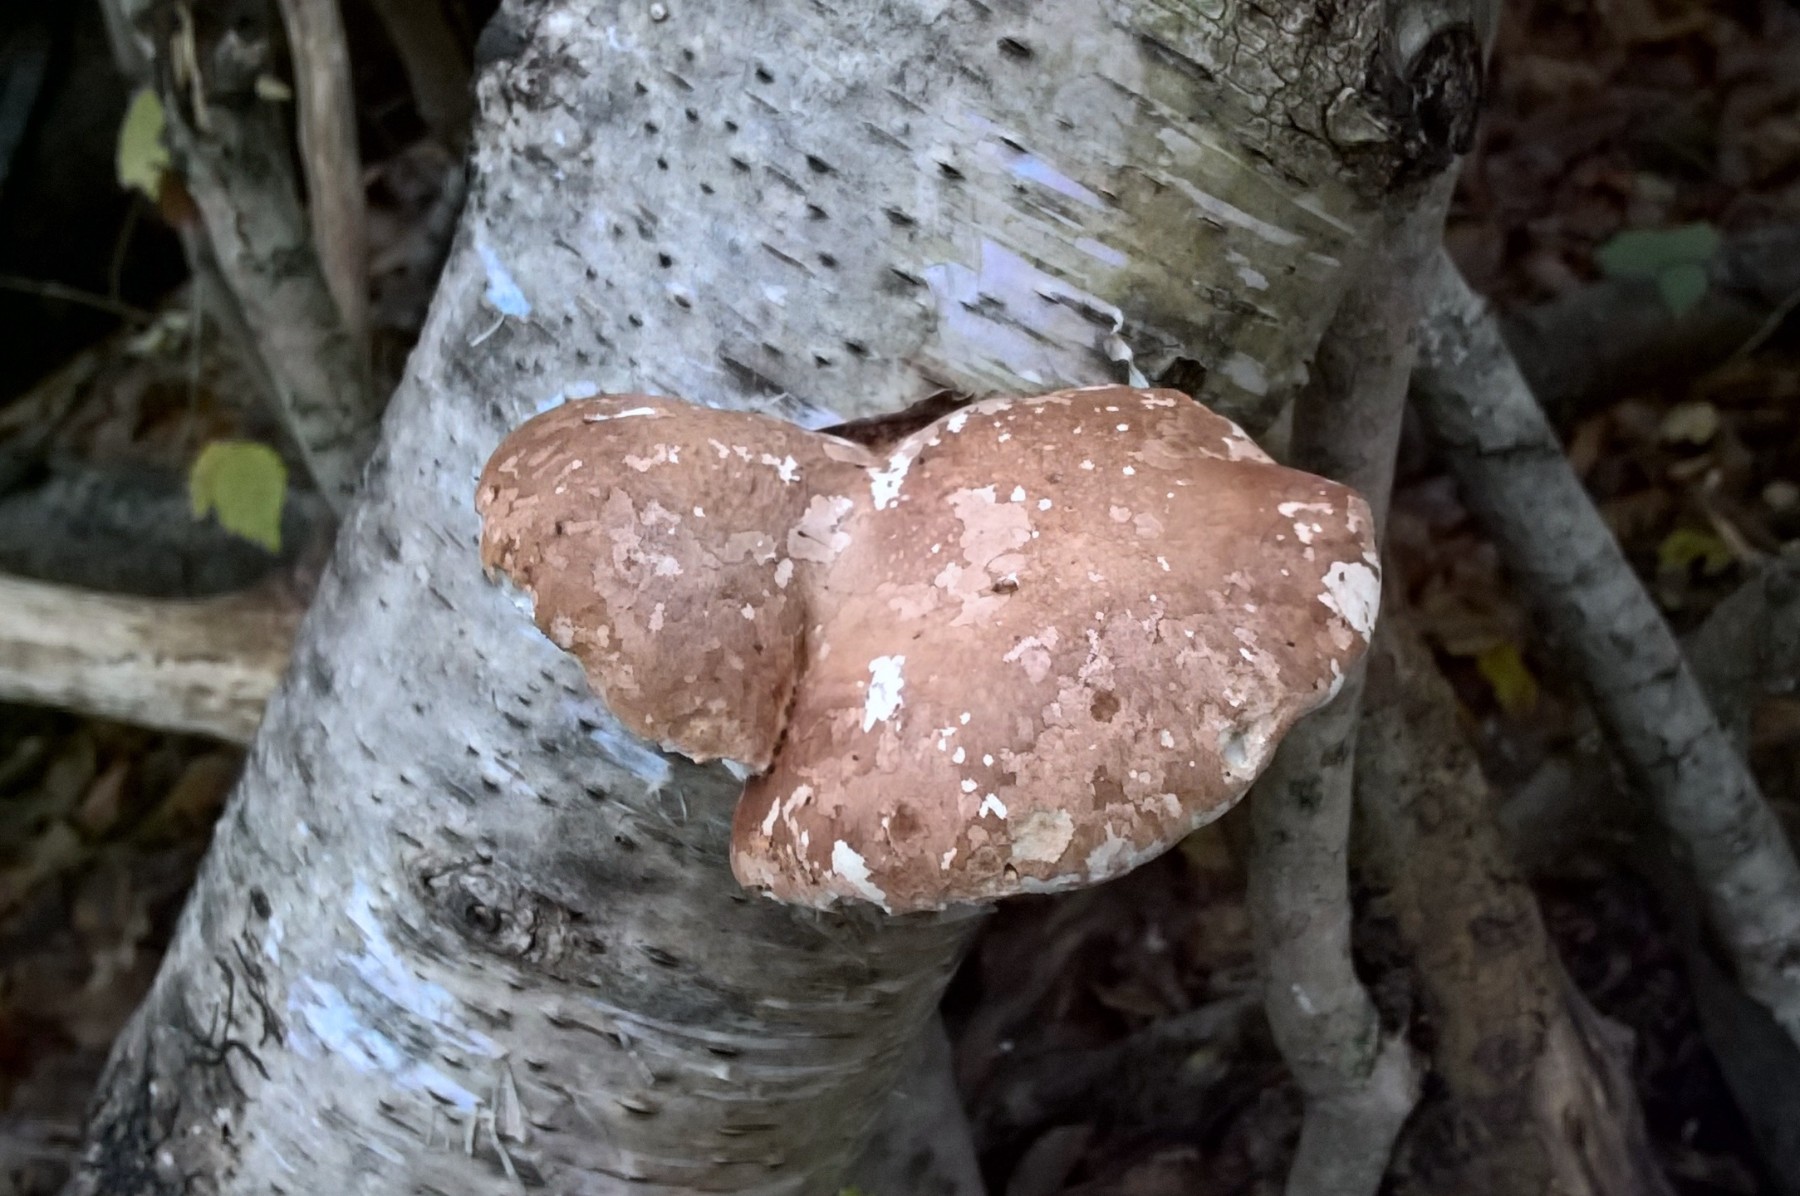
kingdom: Fungi
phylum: Basidiomycota
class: Agaricomycetes
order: Polyporales
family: Fomitopsidaceae
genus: Fomitopsis
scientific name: Fomitopsis betulina
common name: birkeporesvamp
